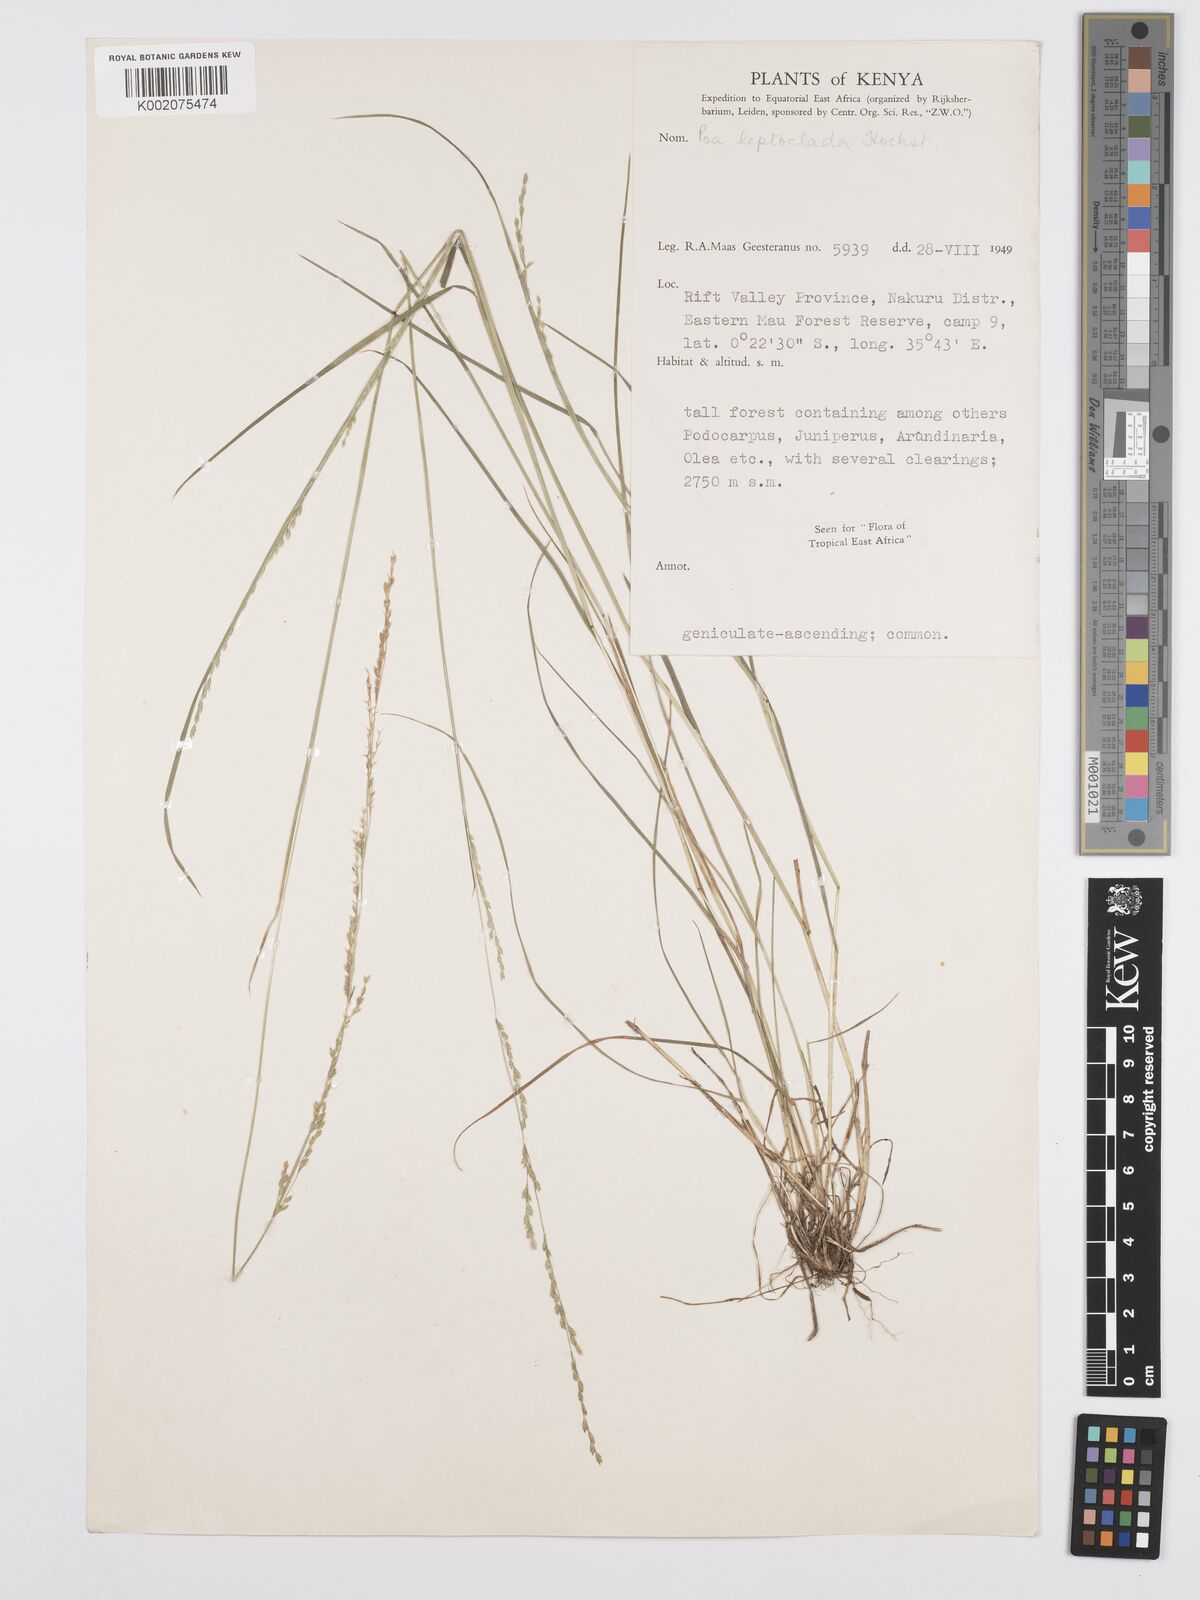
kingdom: Plantae
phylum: Tracheophyta
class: Liliopsida
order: Poales
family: Poaceae
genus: Poa
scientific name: Poa leptoclada
